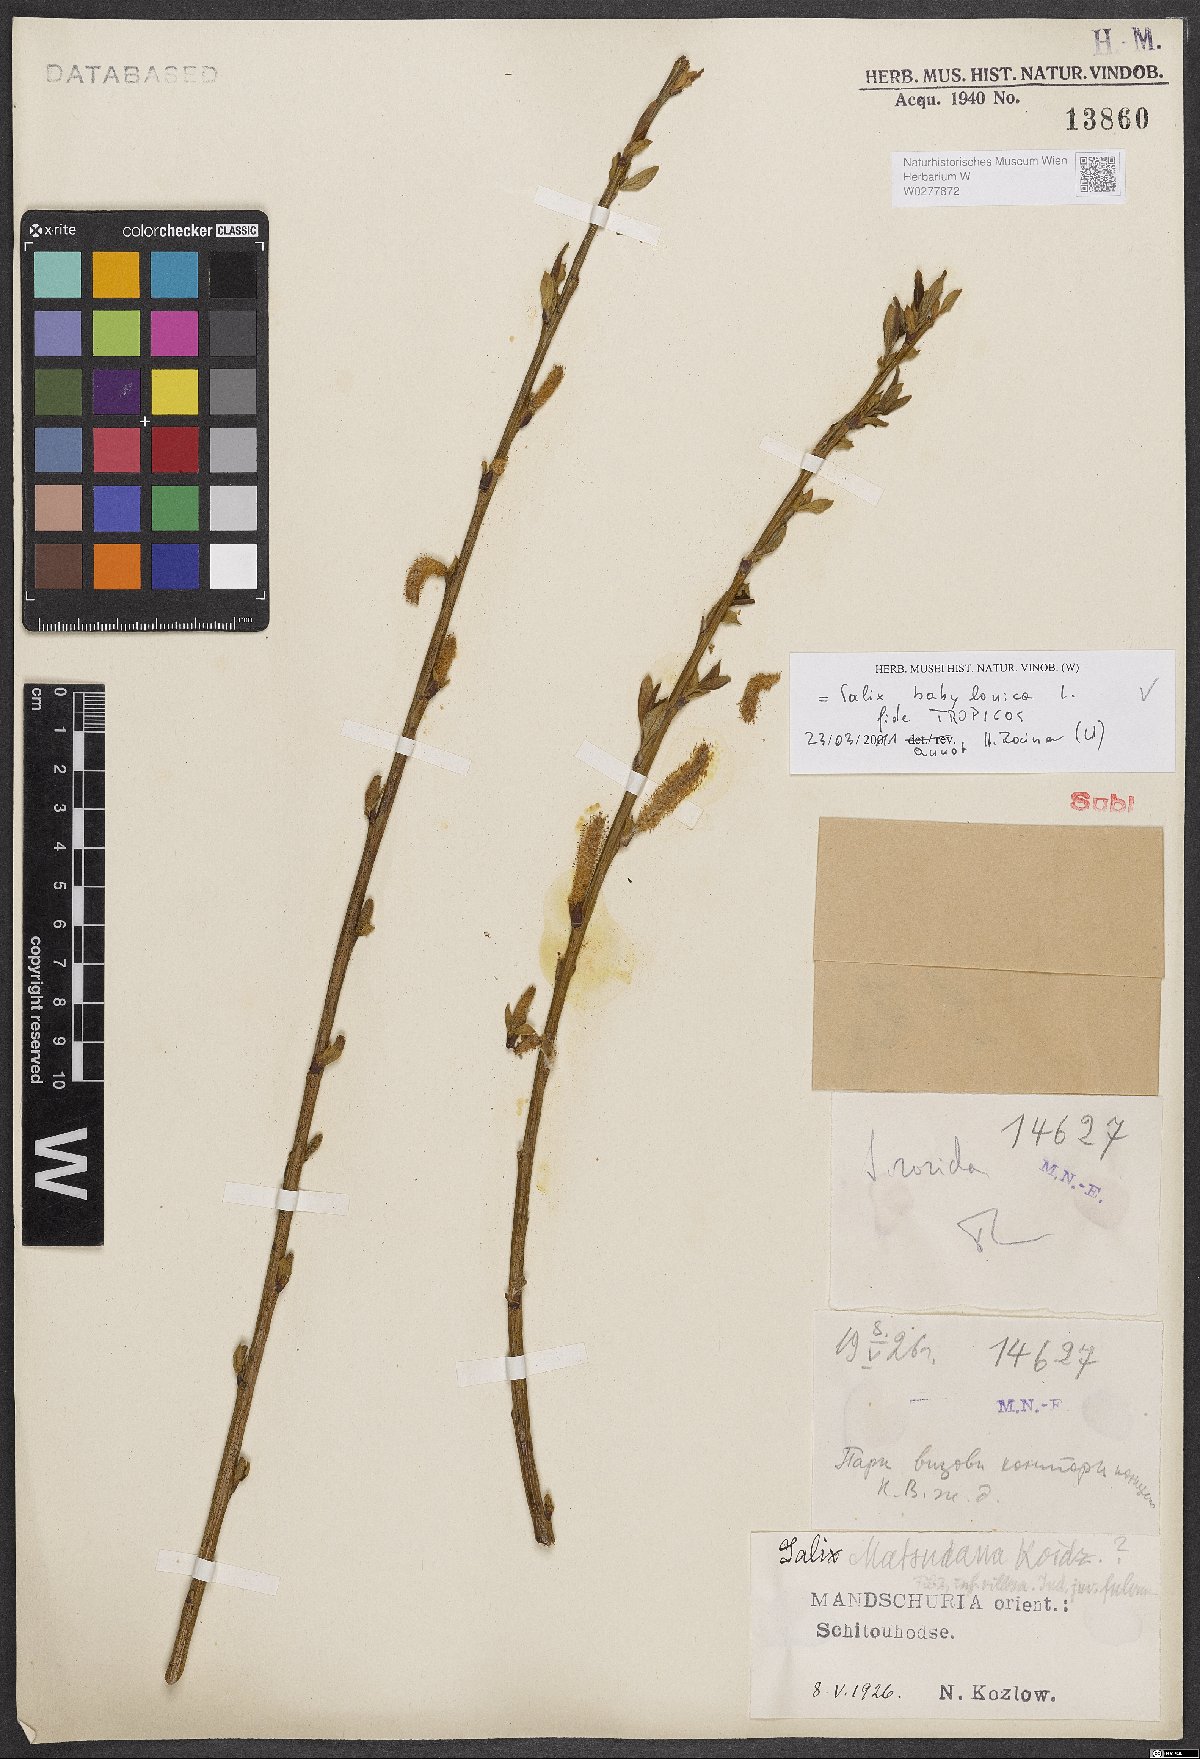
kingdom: Plantae
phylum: Tracheophyta
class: Magnoliopsida
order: Malpighiales
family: Salicaceae
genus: Salix
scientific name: Salix babylonica
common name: Weeping willow
